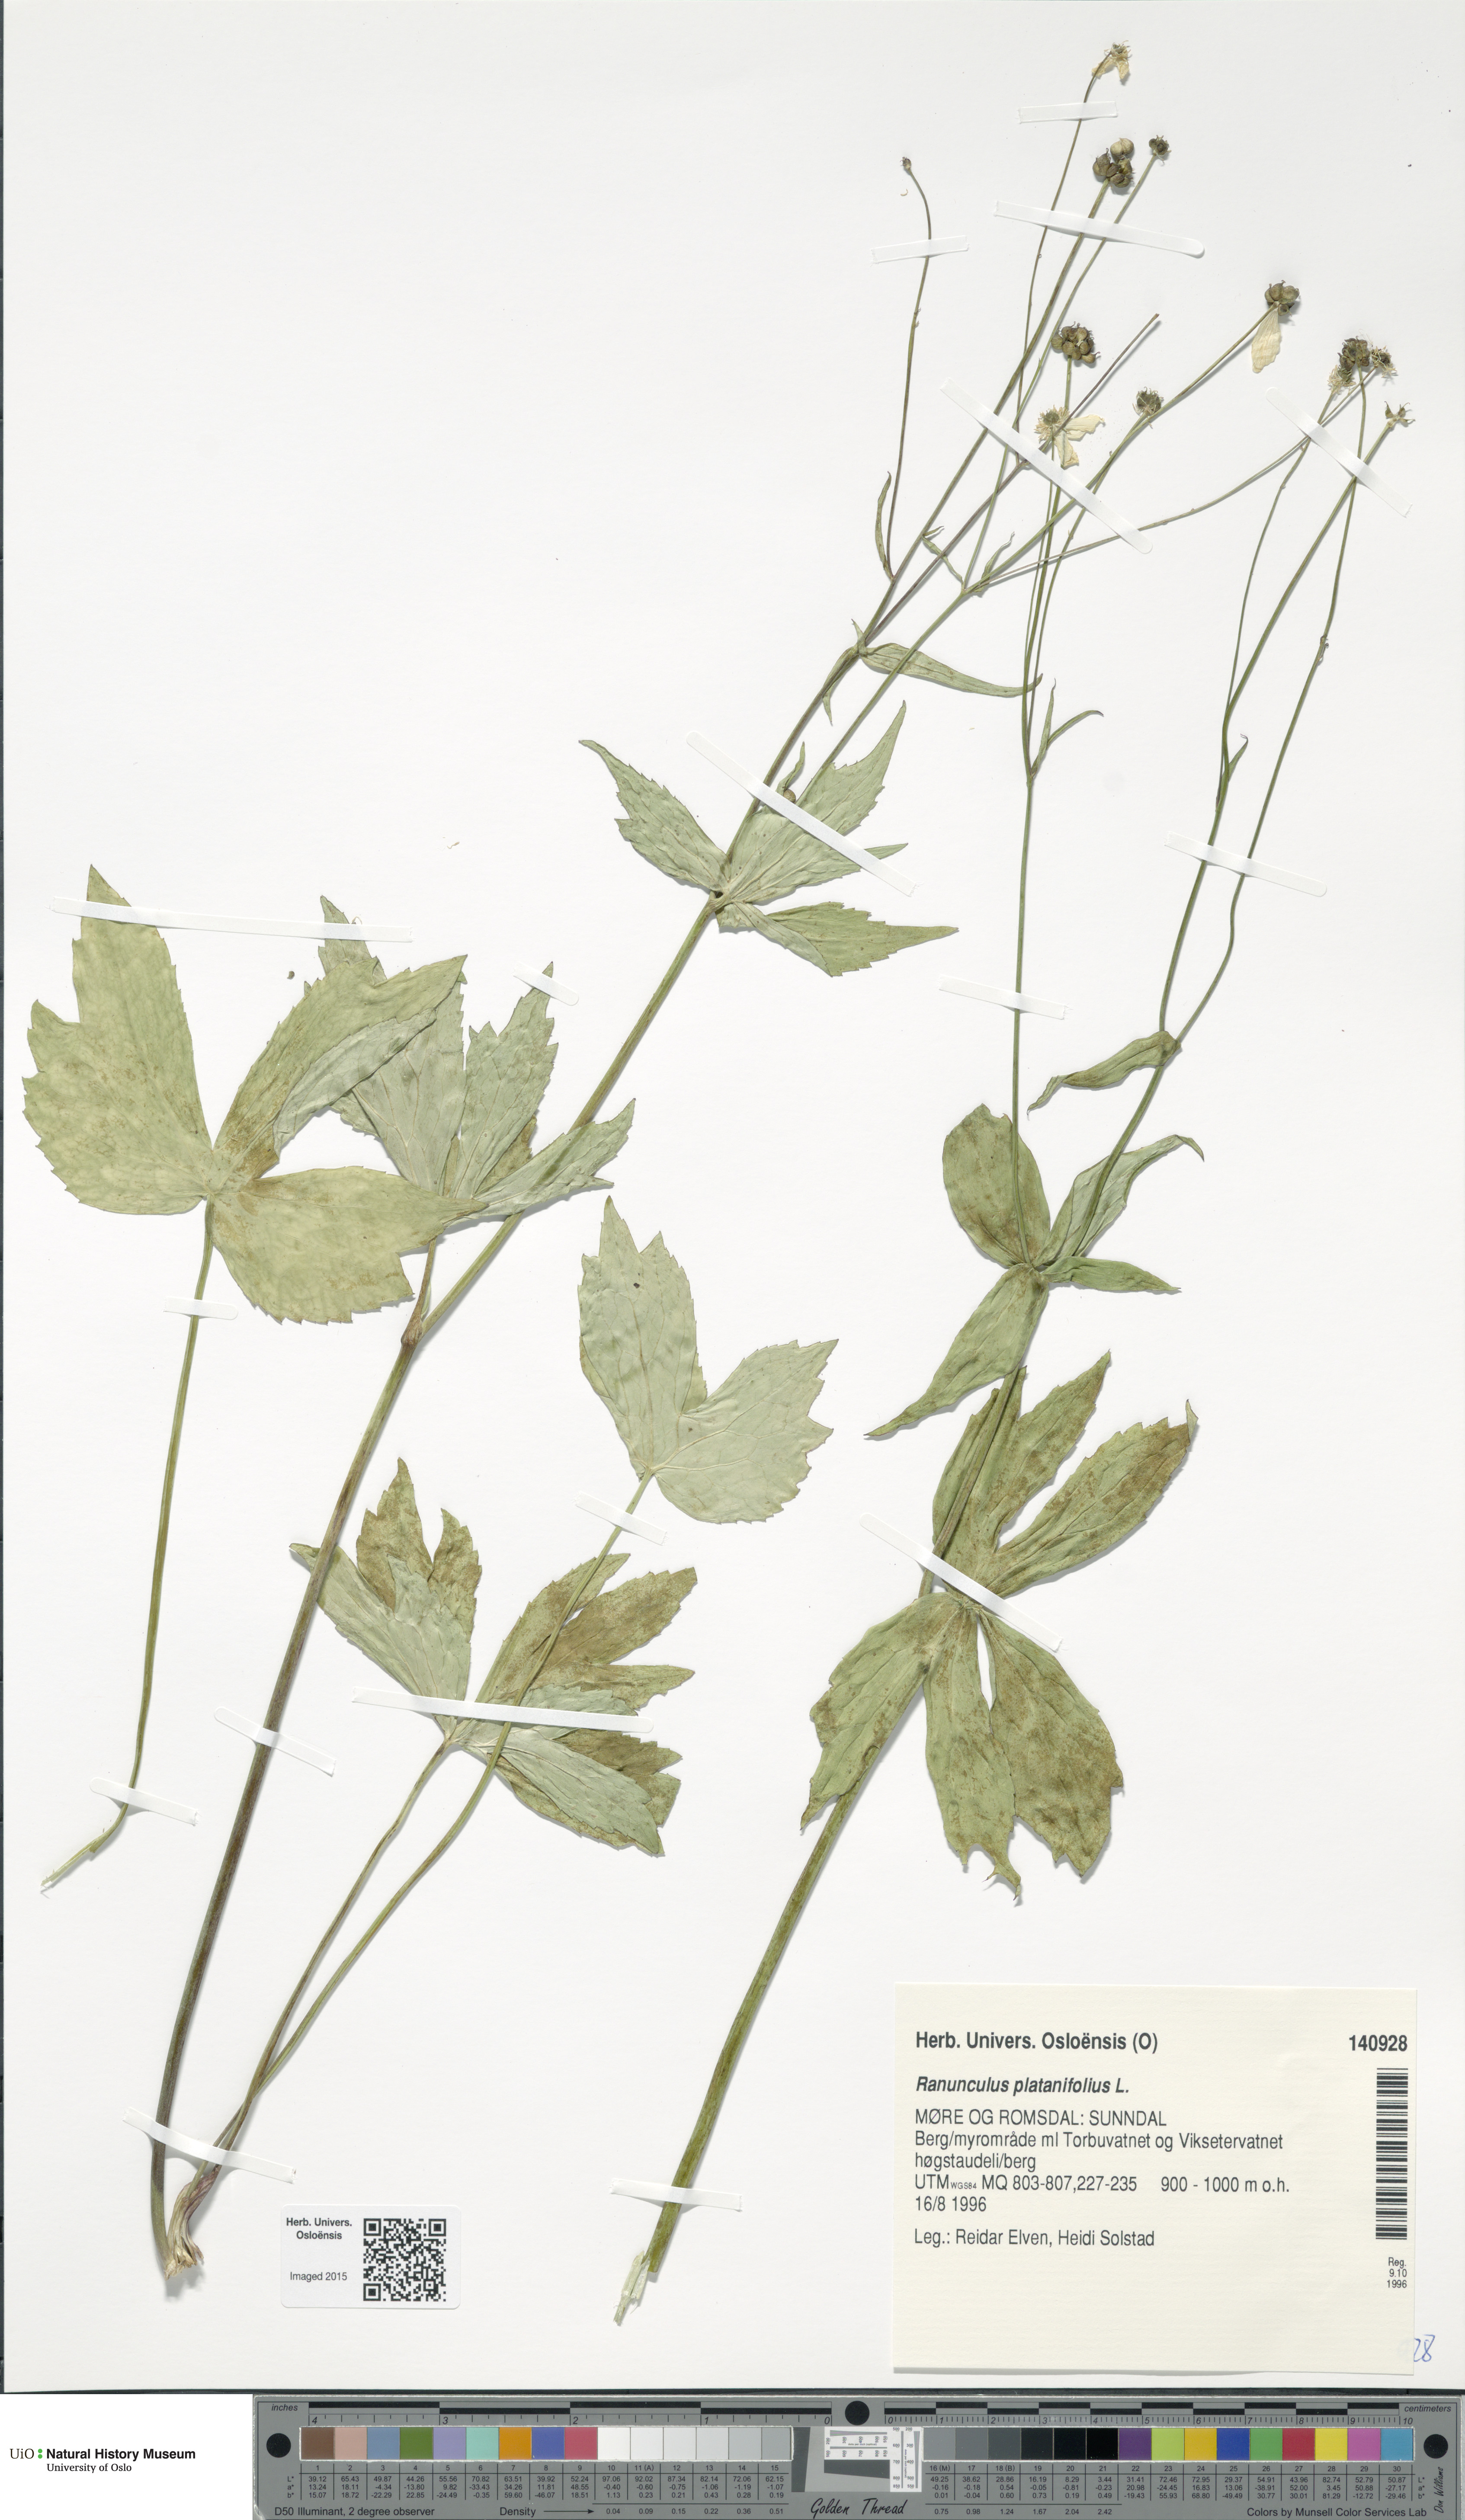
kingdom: Plantae
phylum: Tracheophyta
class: Magnoliopsida
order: Ranunculales
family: Ranunculaceae
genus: Ranunculus
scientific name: Ranunculus platanifolius
